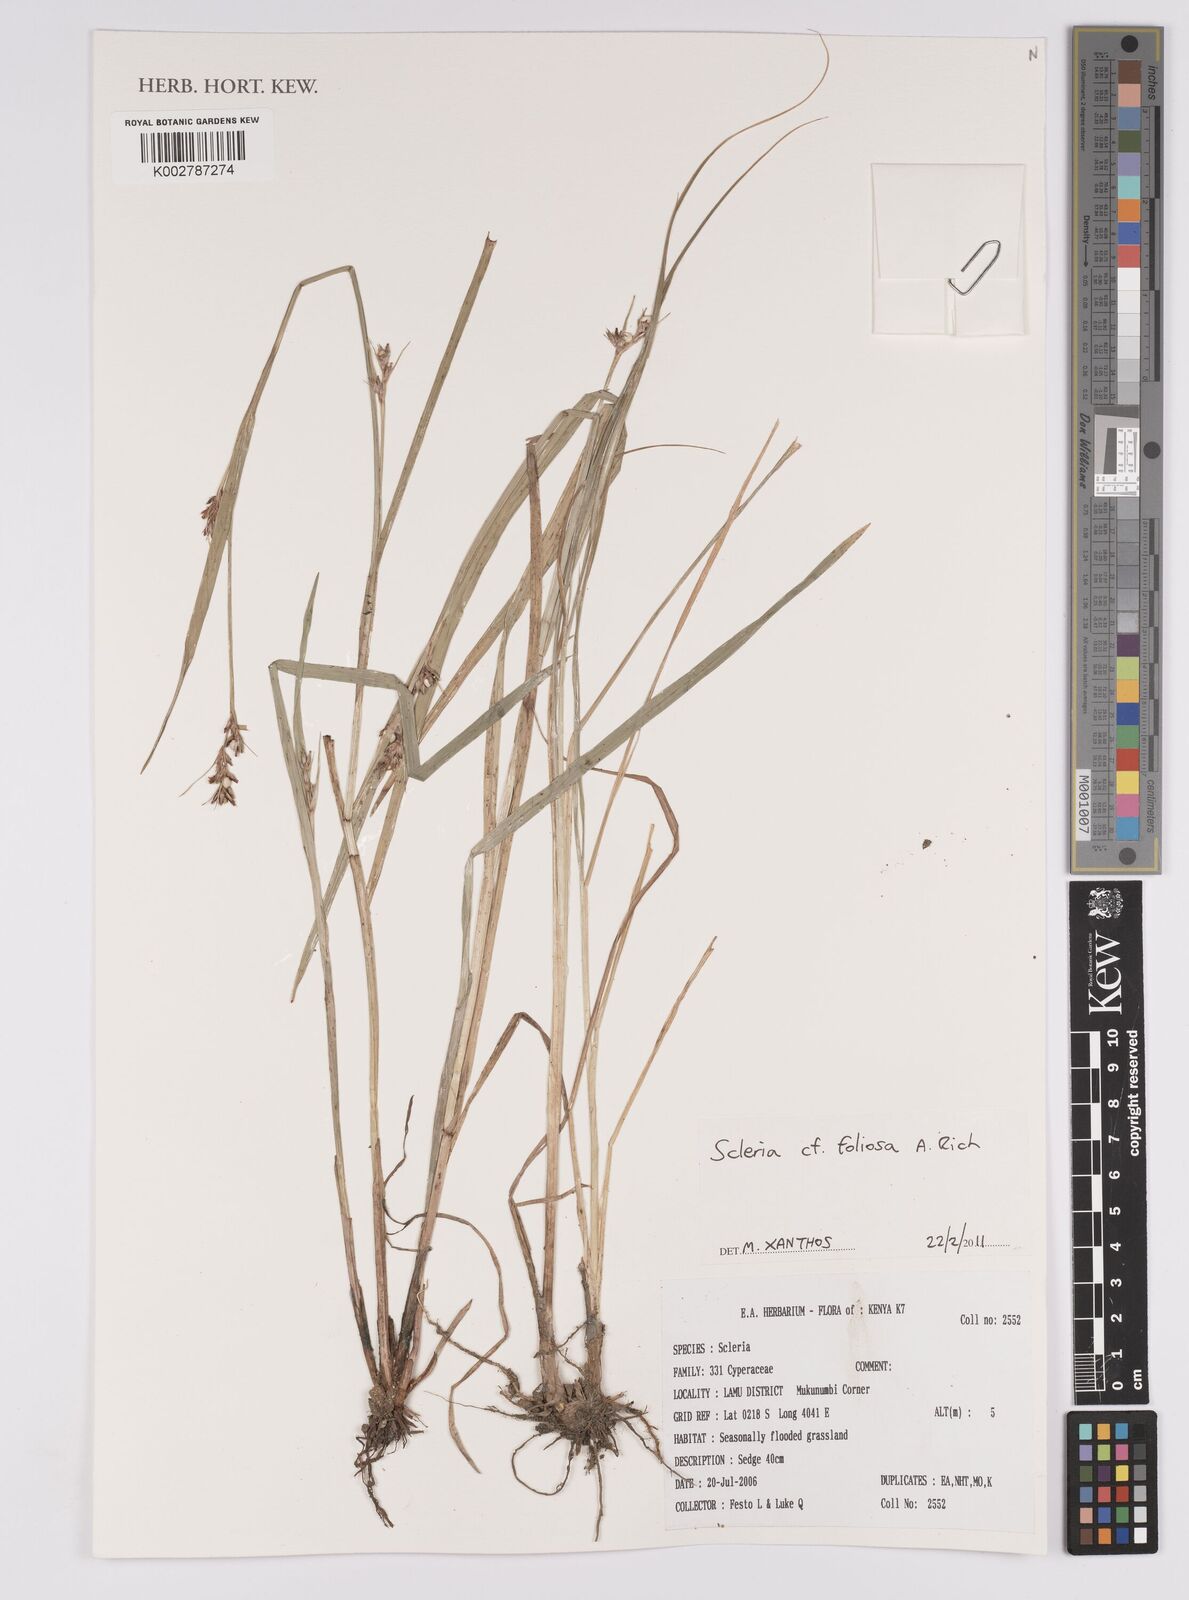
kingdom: Plantae
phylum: Tracheophyta
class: Liliopsida
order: Poales
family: Cyperaceae
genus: Scleria
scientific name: Scleria foliosa
